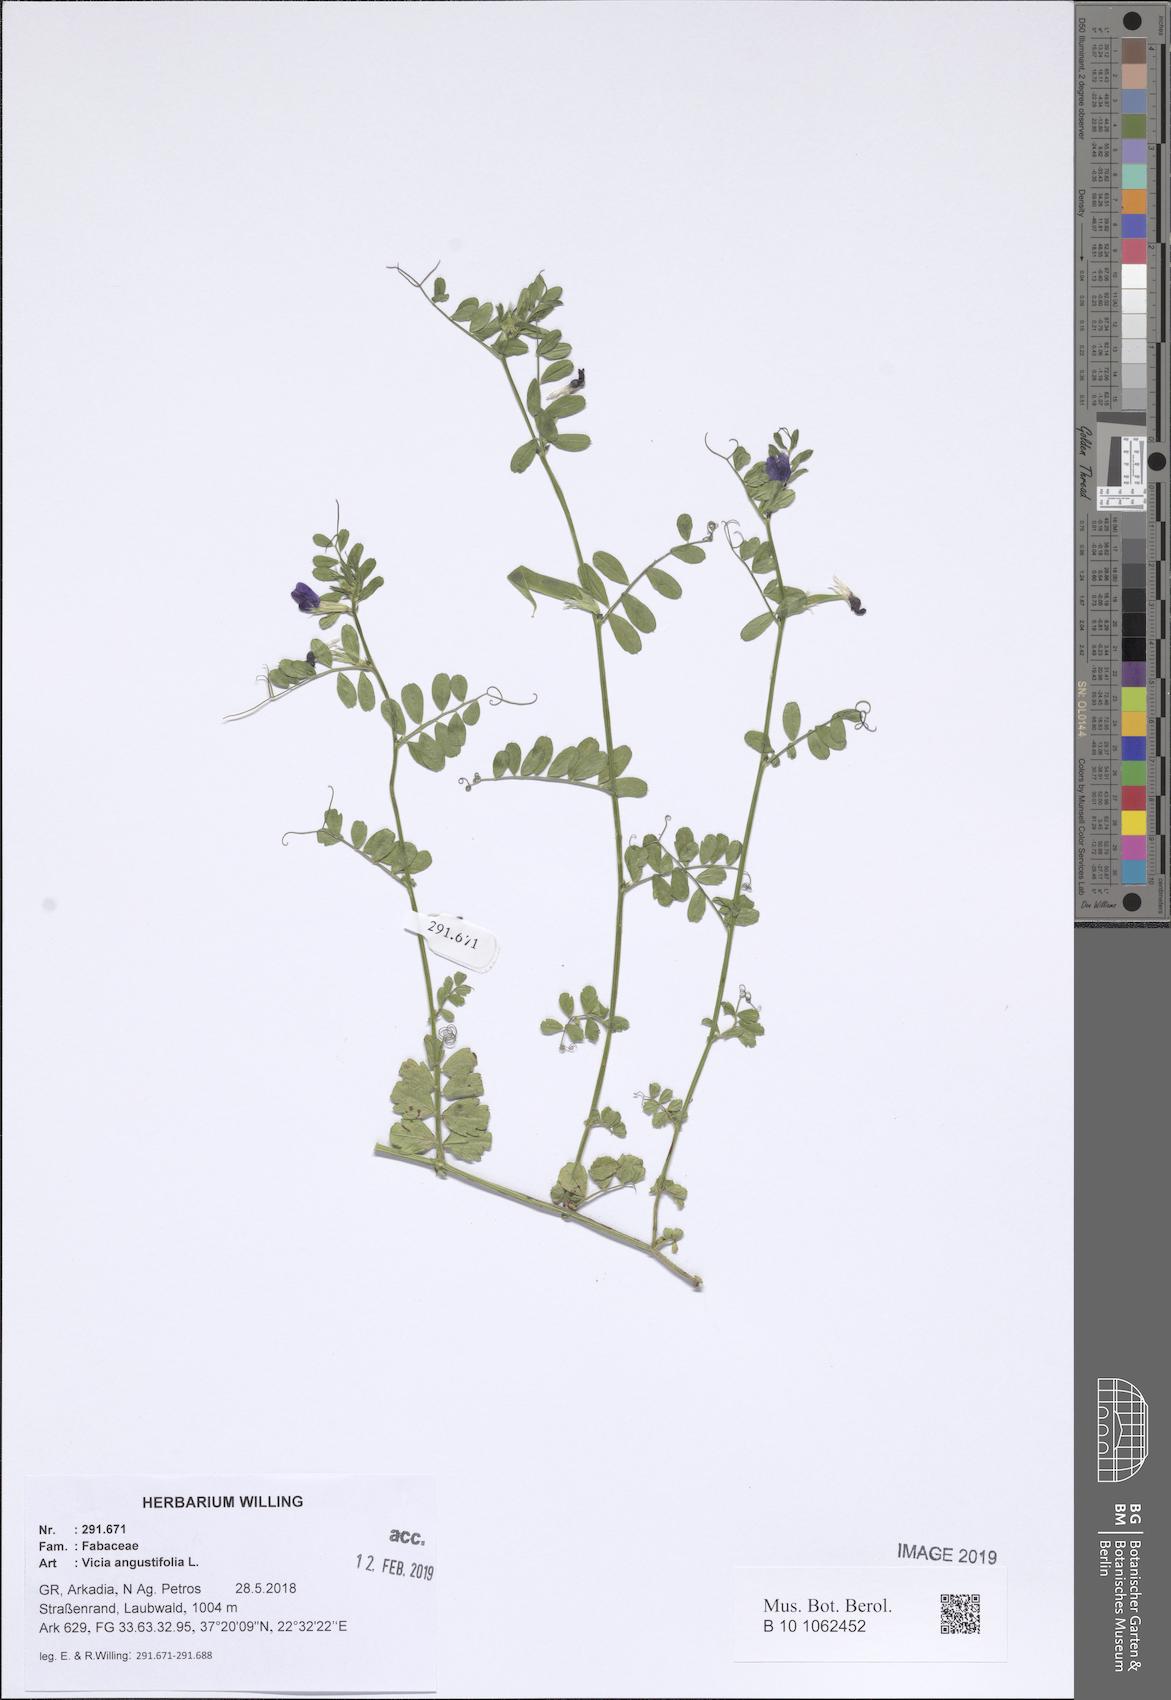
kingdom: Plantae
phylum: Tracheophyta
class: Magnoliopsida
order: Fabales
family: Fabaceae
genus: Vicia
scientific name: Vicia sativa
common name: Garden vetch
